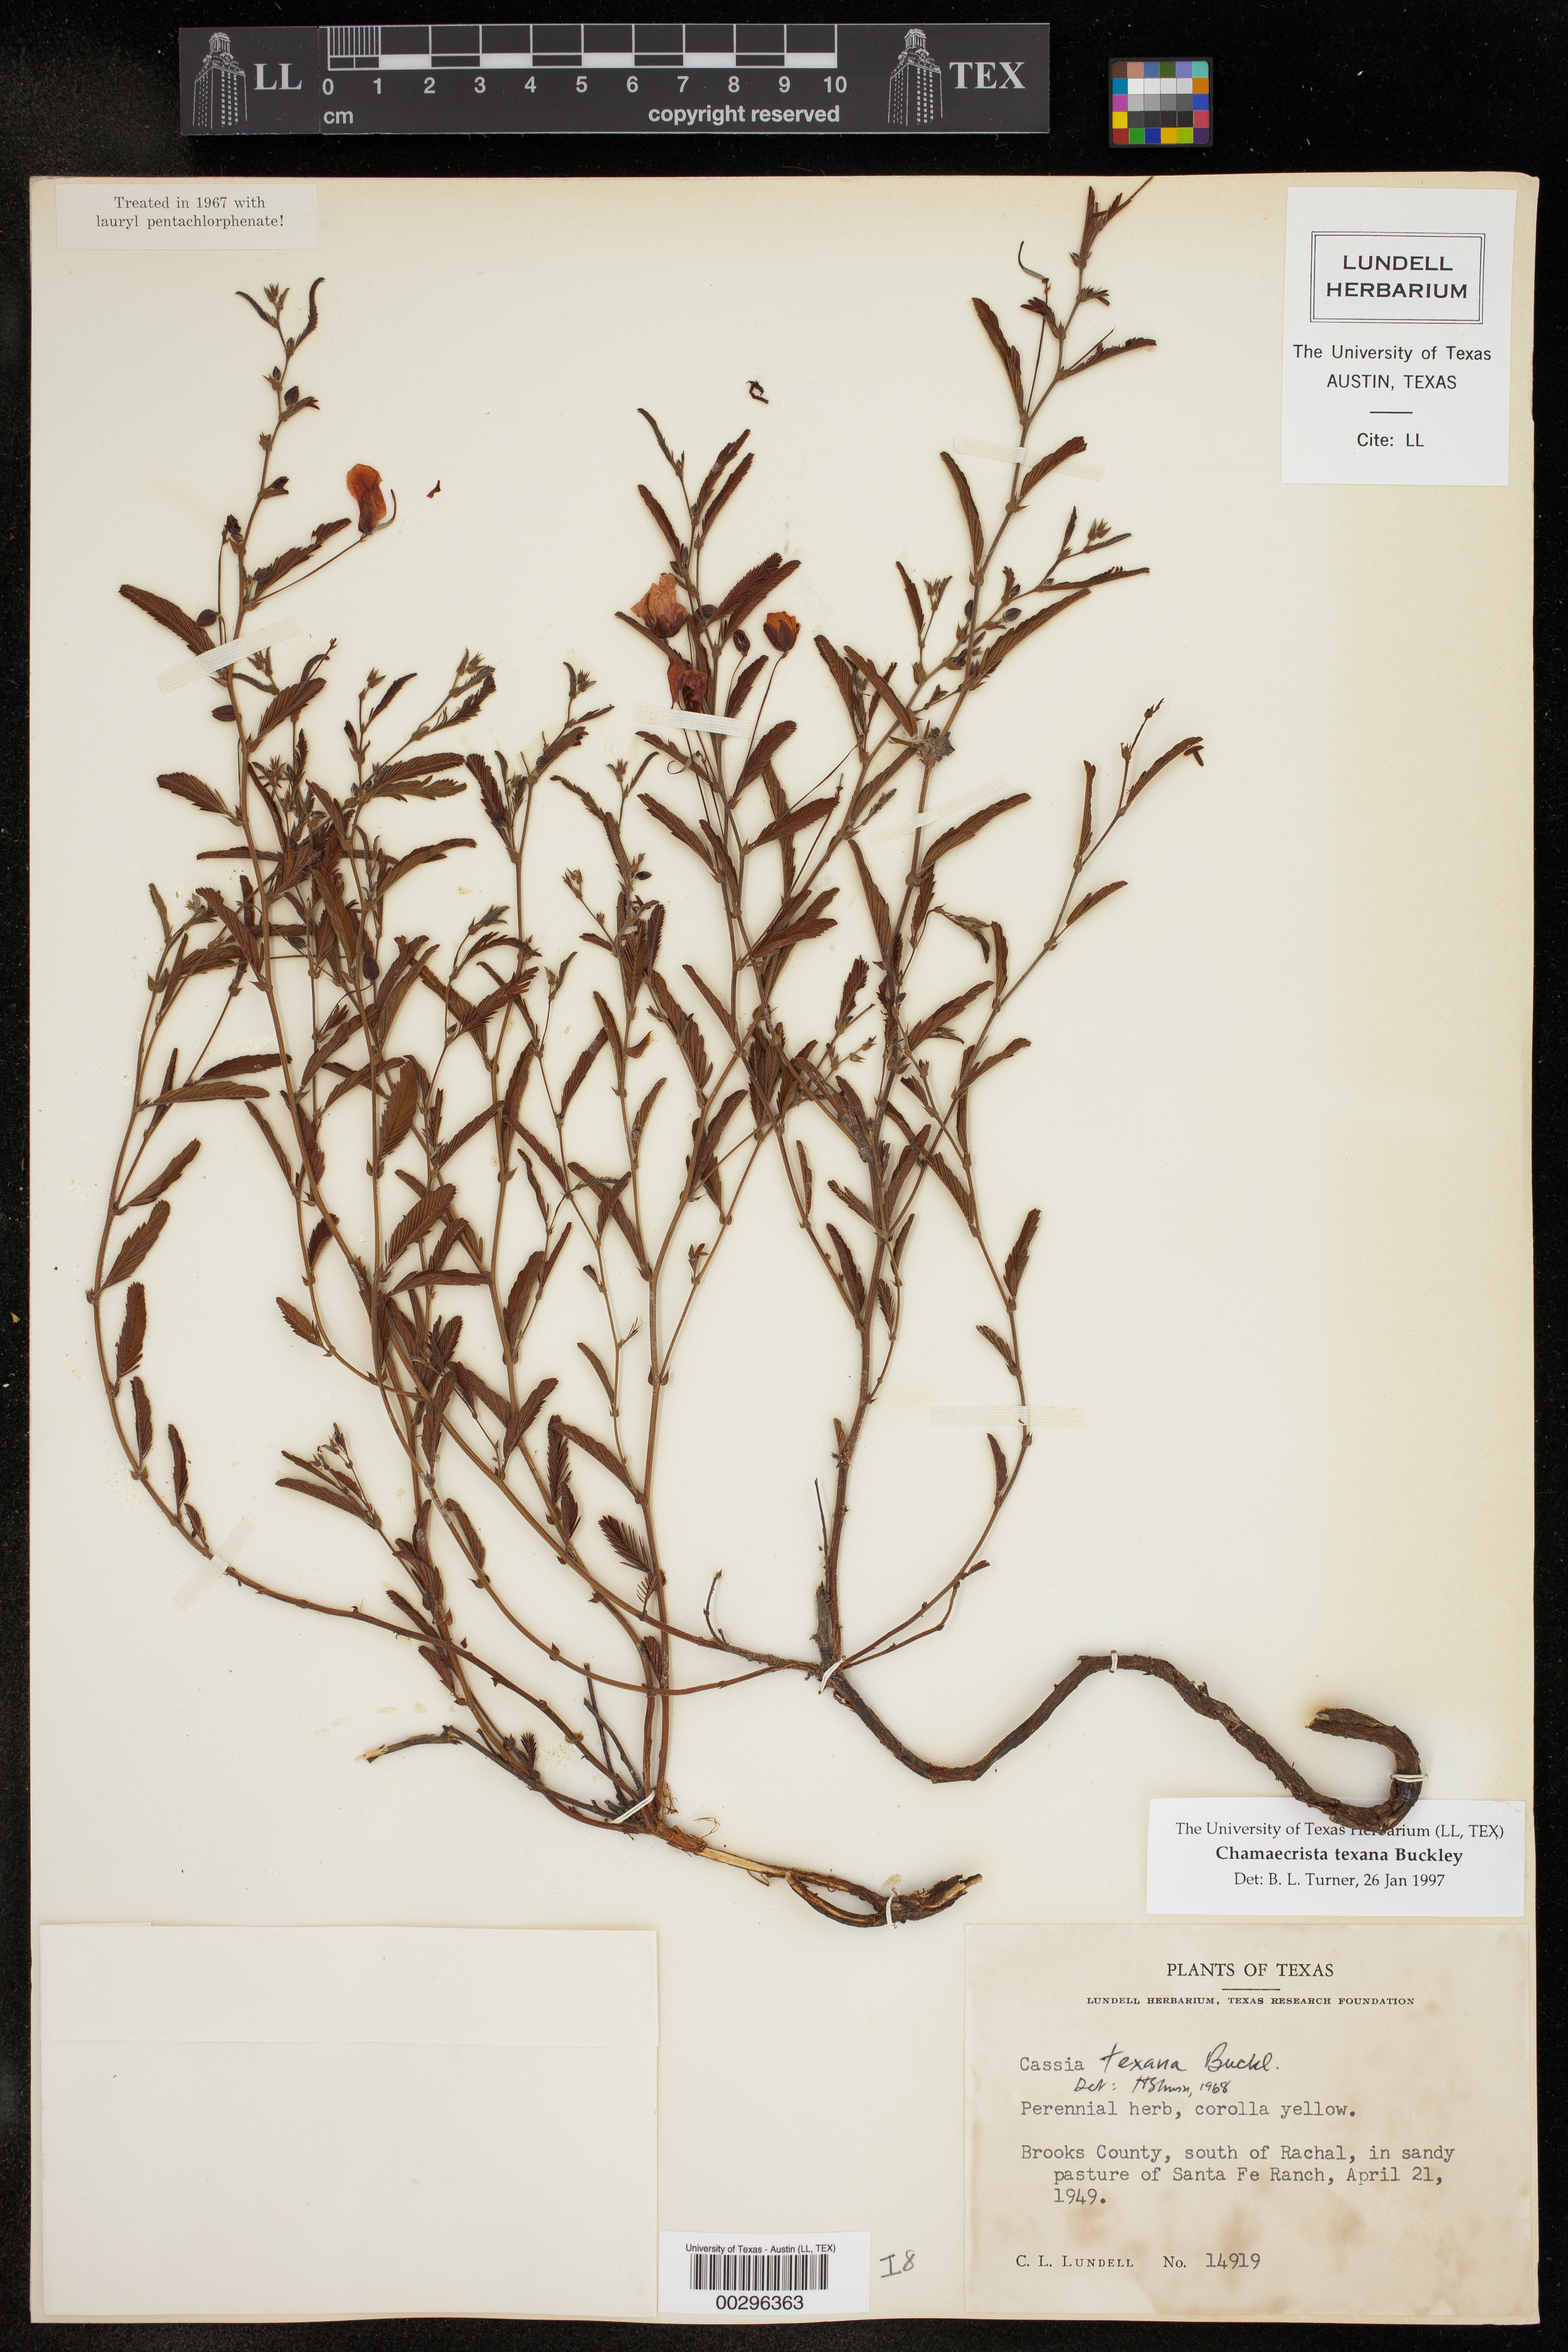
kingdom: Plantae
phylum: Tracheophyta
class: Magnoliopsida
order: Fabales
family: Fabaceae
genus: Chamaecrista
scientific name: Chamaecrista flexuosa
